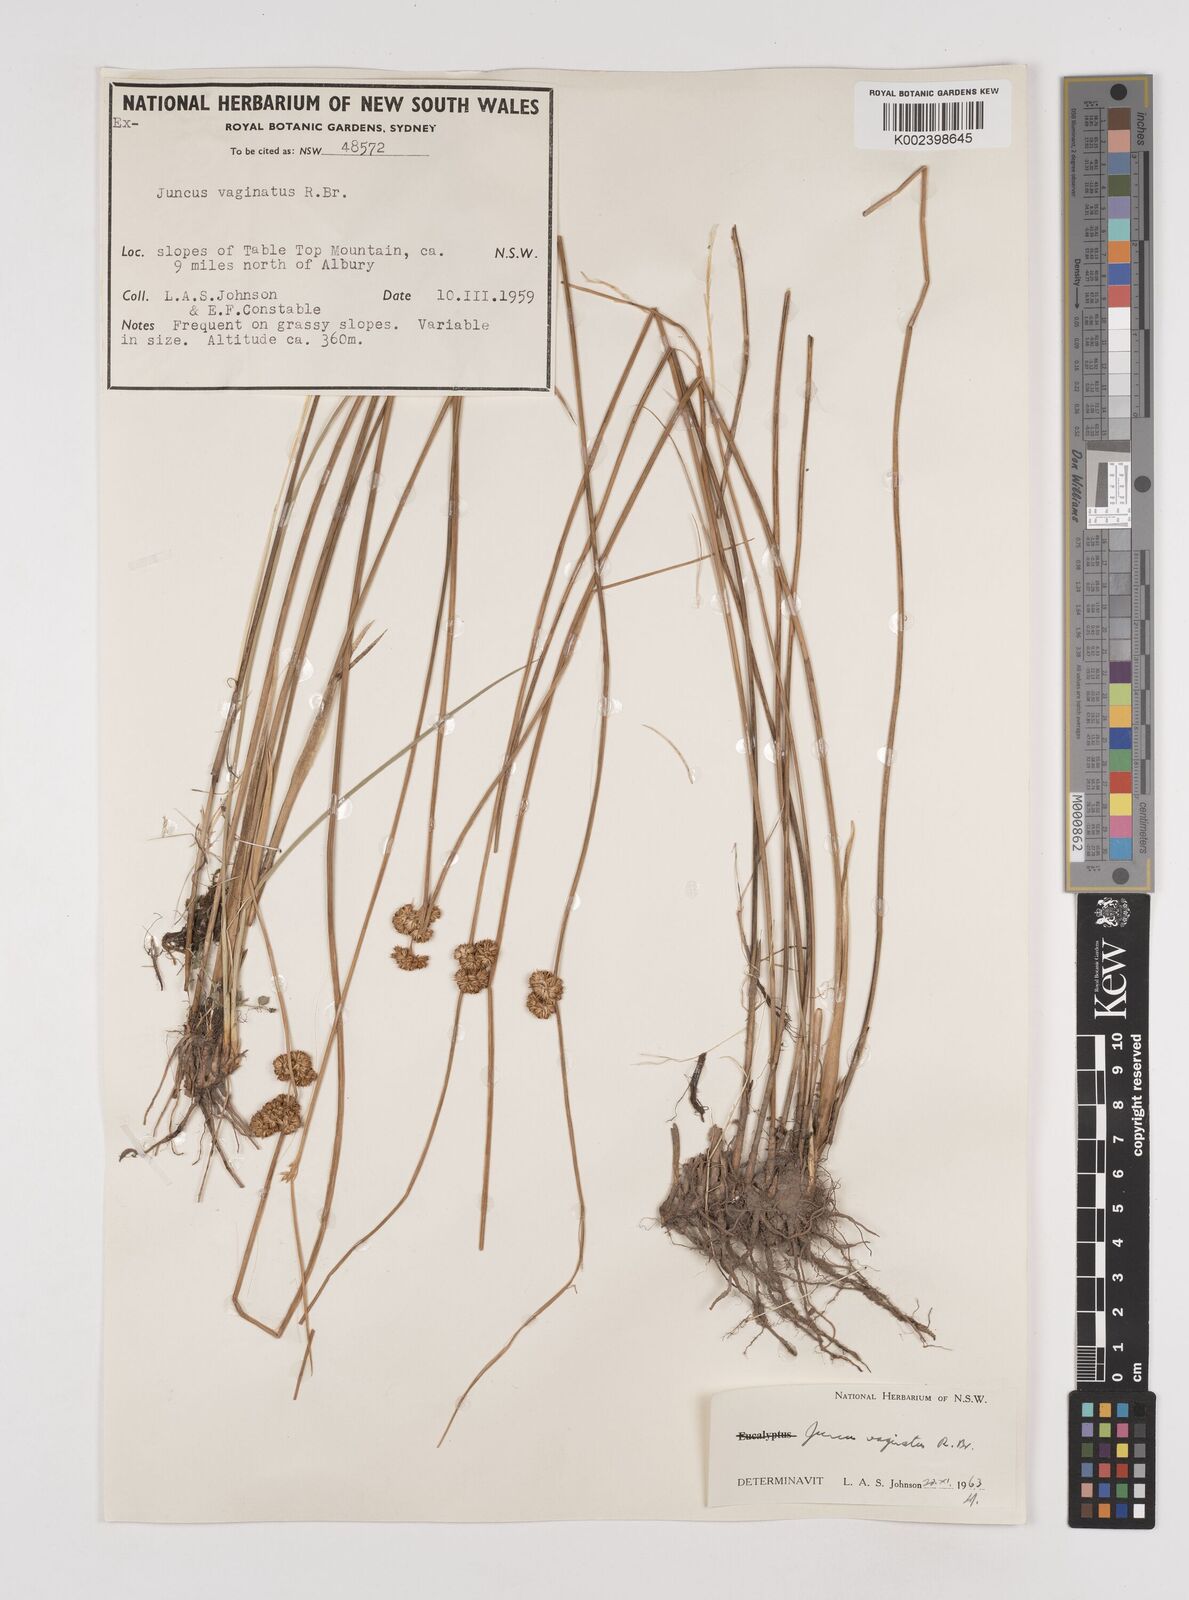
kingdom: Plantae
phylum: Tracheophyta
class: Liliopsida
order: Poales
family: Juncaceae
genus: Juncus
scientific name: Juncus vaginatus
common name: Clustered rush
